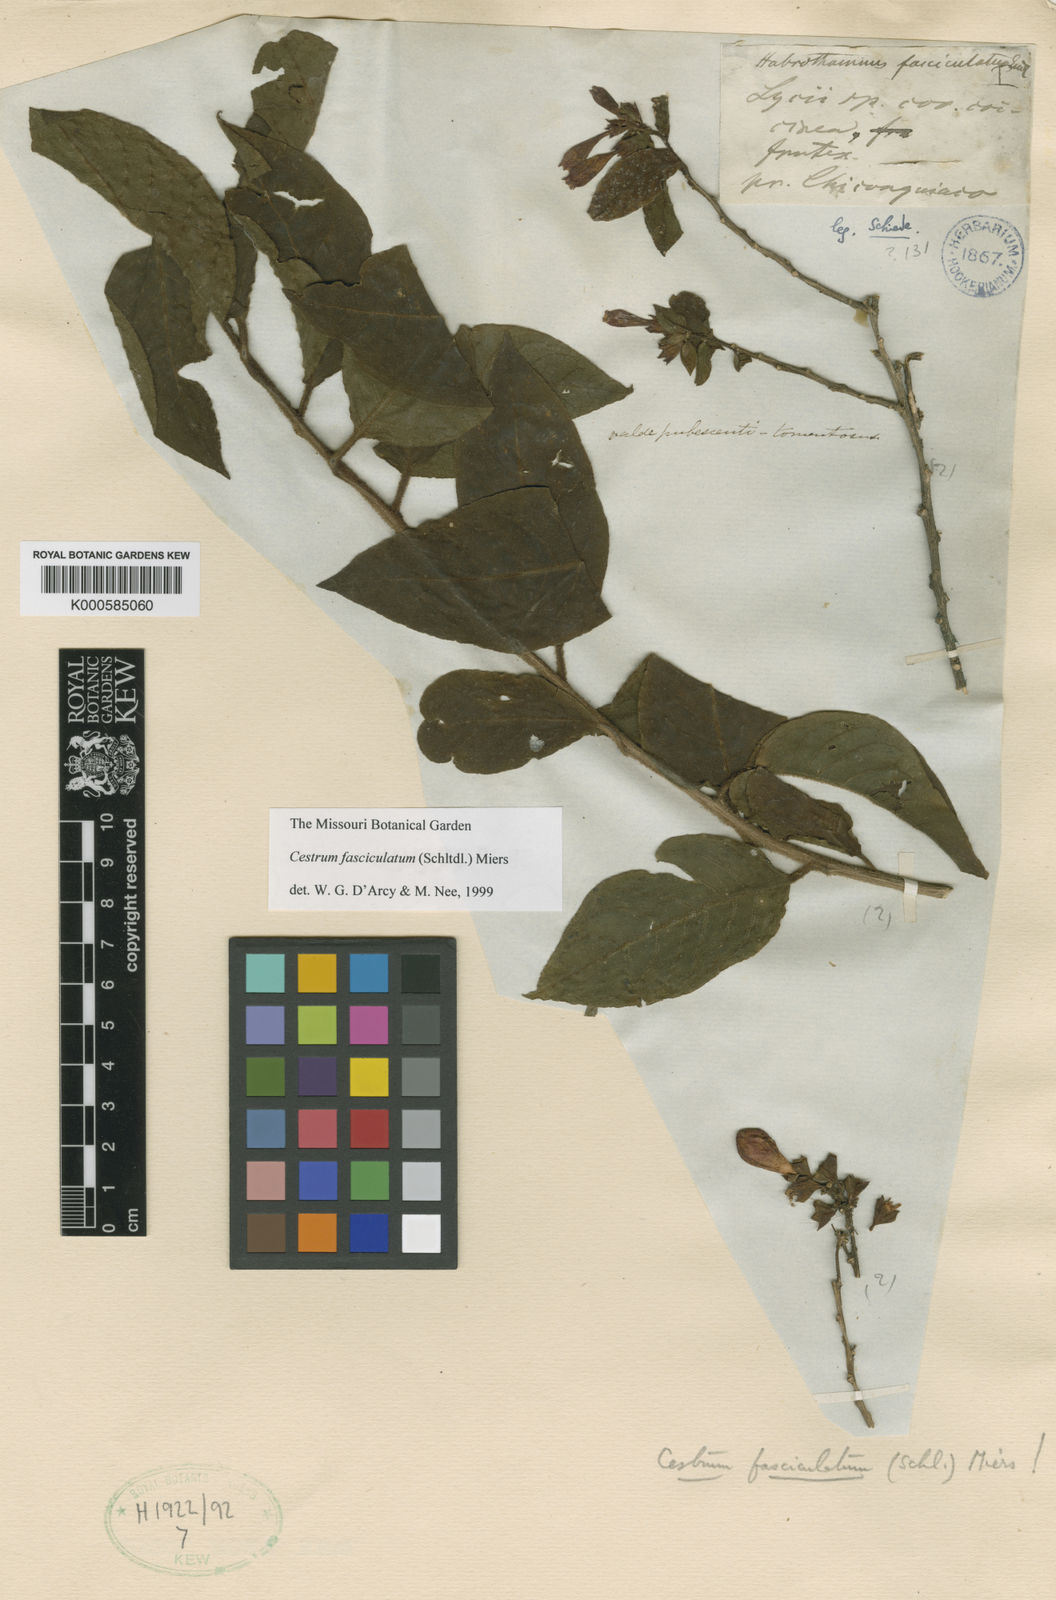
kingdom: Plantae
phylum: Tracheophyta
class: Magnoliopsida
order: Solanales
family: Solanaceae
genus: Cestrum
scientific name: Cestrum fasciculatum
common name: Early jessamine
